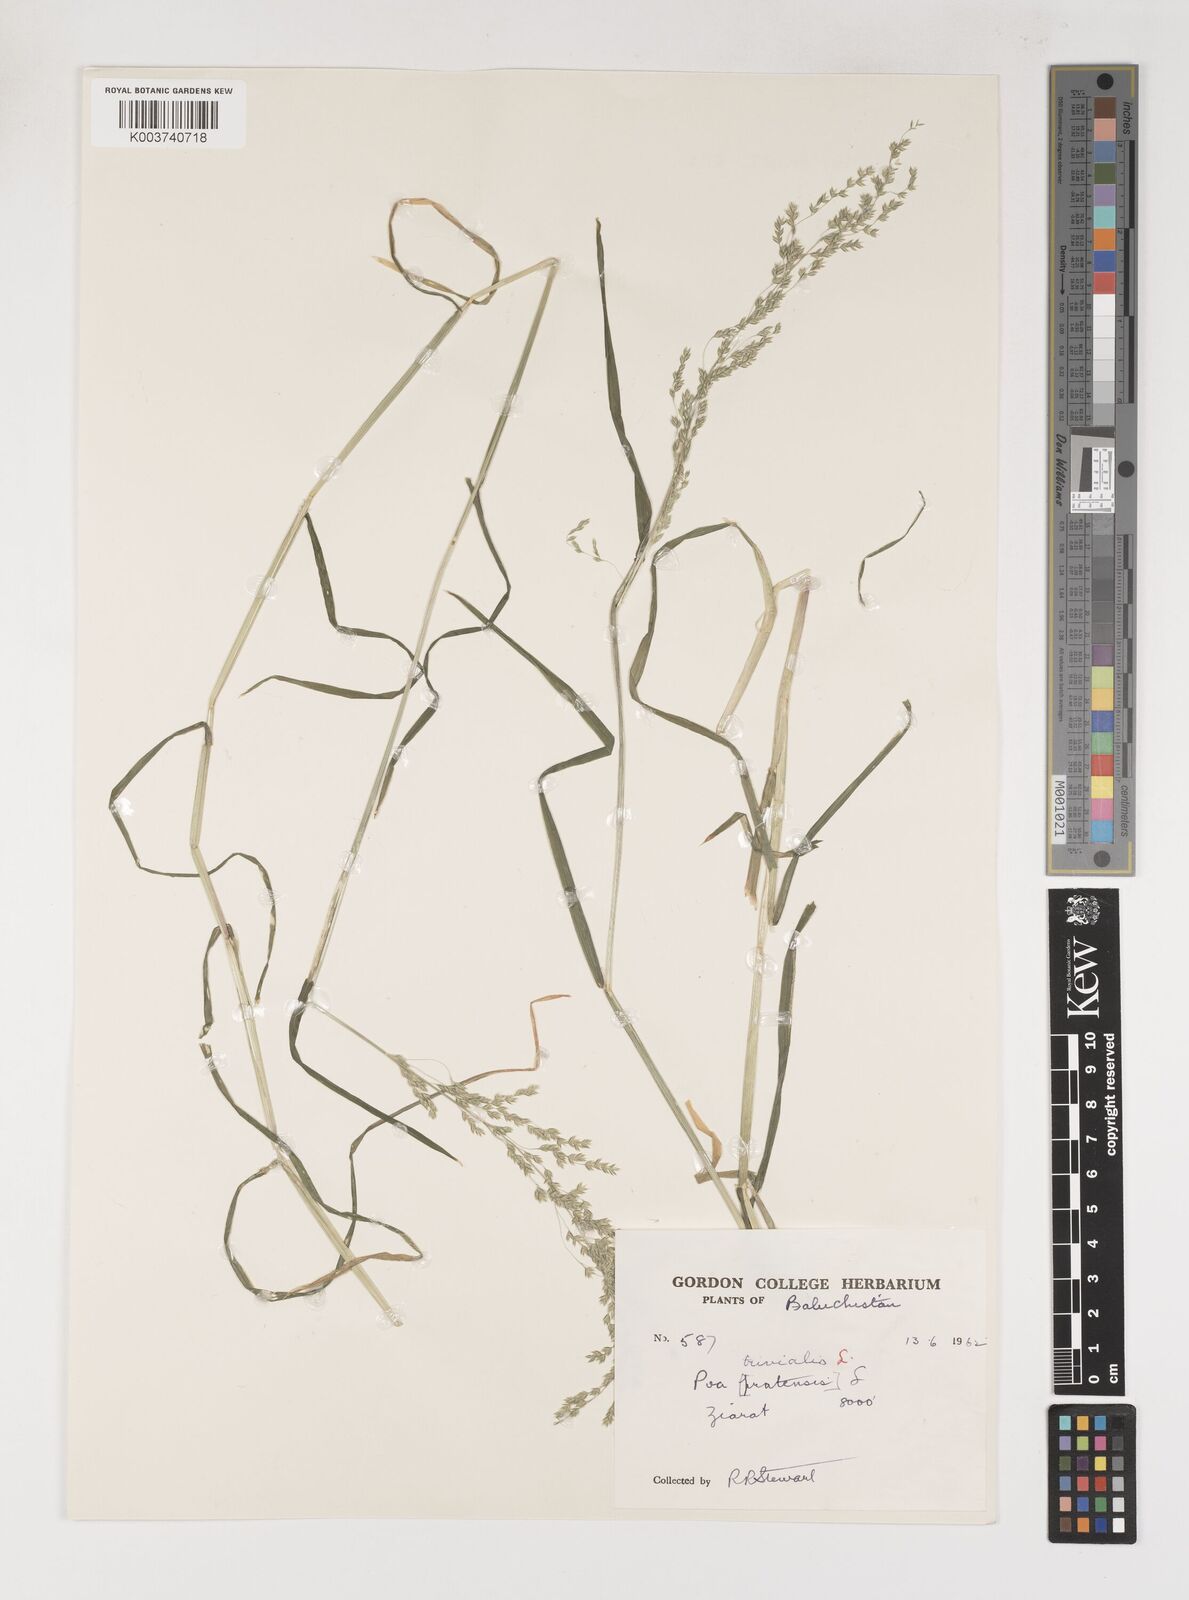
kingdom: Plantae
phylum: Tracheophyta
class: Liliopsida
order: Poales
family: Poaceae
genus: Poa
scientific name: Poa trivialis
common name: Rough bluegrass
